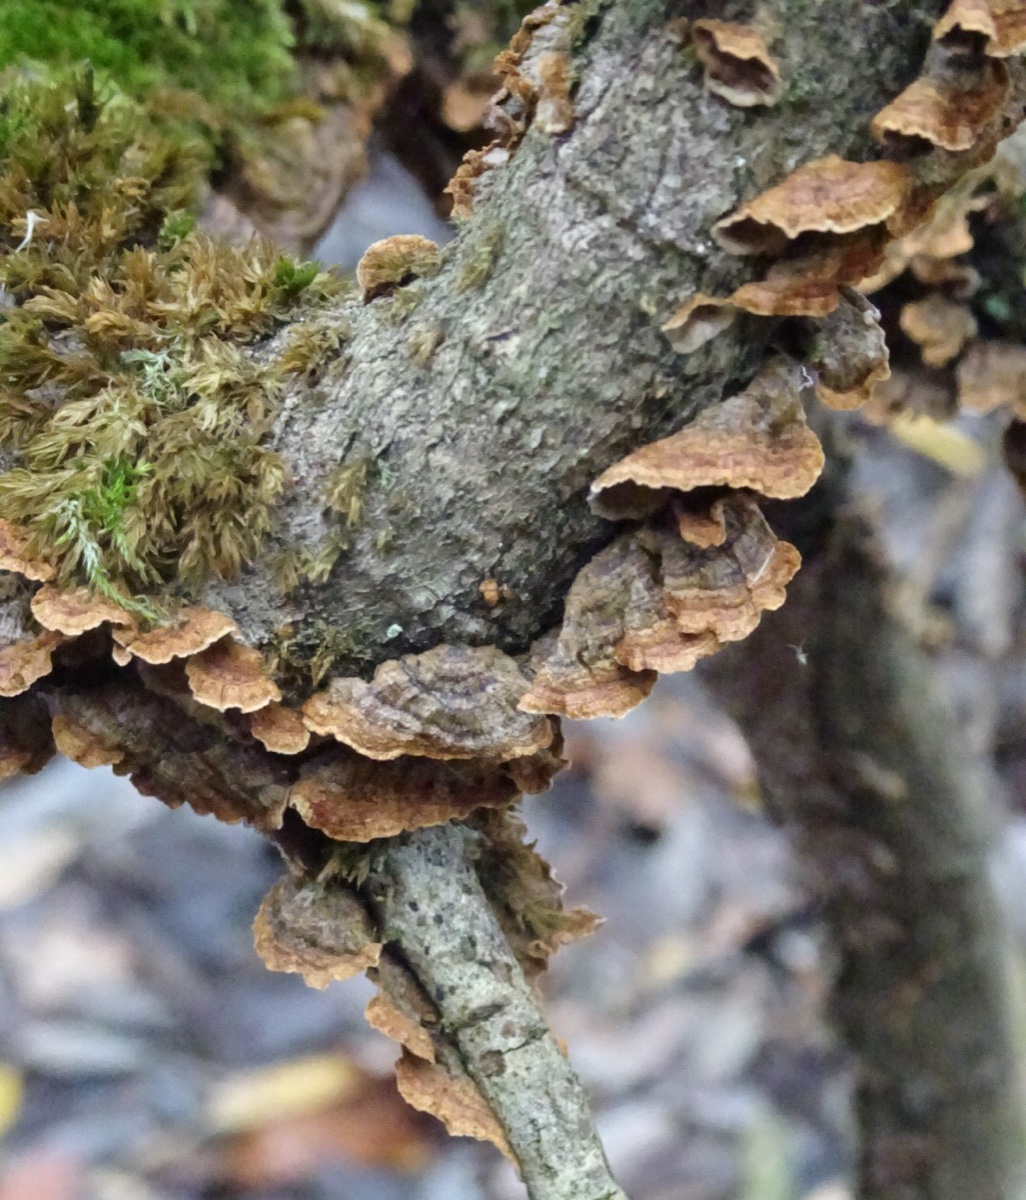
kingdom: Fungi
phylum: Basidiomycota
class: Agaricomycetes
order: Hymenochaetales
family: Hymenochaetaceae
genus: Hydnoporia
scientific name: Hydnoporia tabacina
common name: tobaksbrun ruslædersvamp
